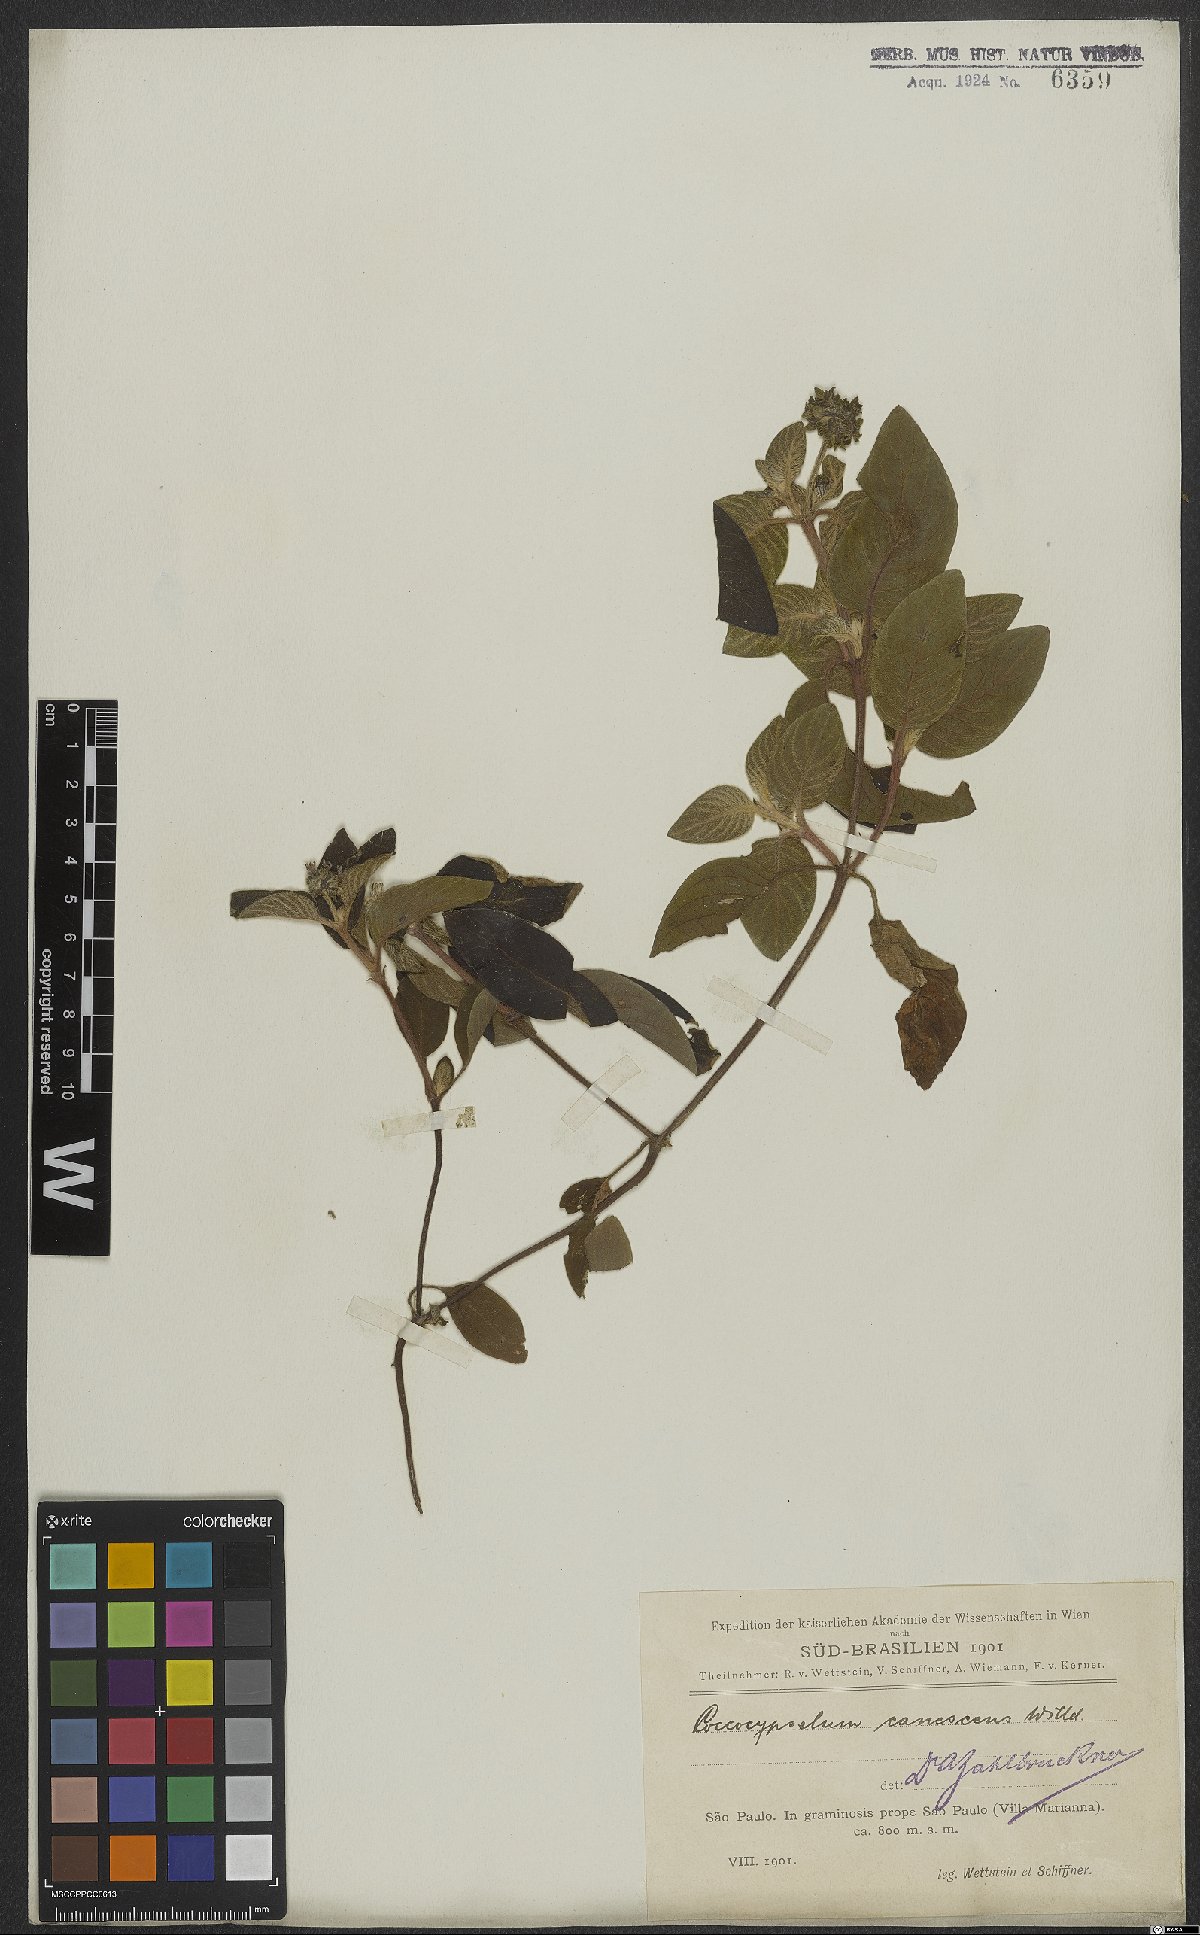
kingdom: Plantae
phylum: Tracheophyta
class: Magnoliopsida
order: Gentianales
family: Rubiaceae
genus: Coccocypselum
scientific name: Coccocypselum lanceolatum
